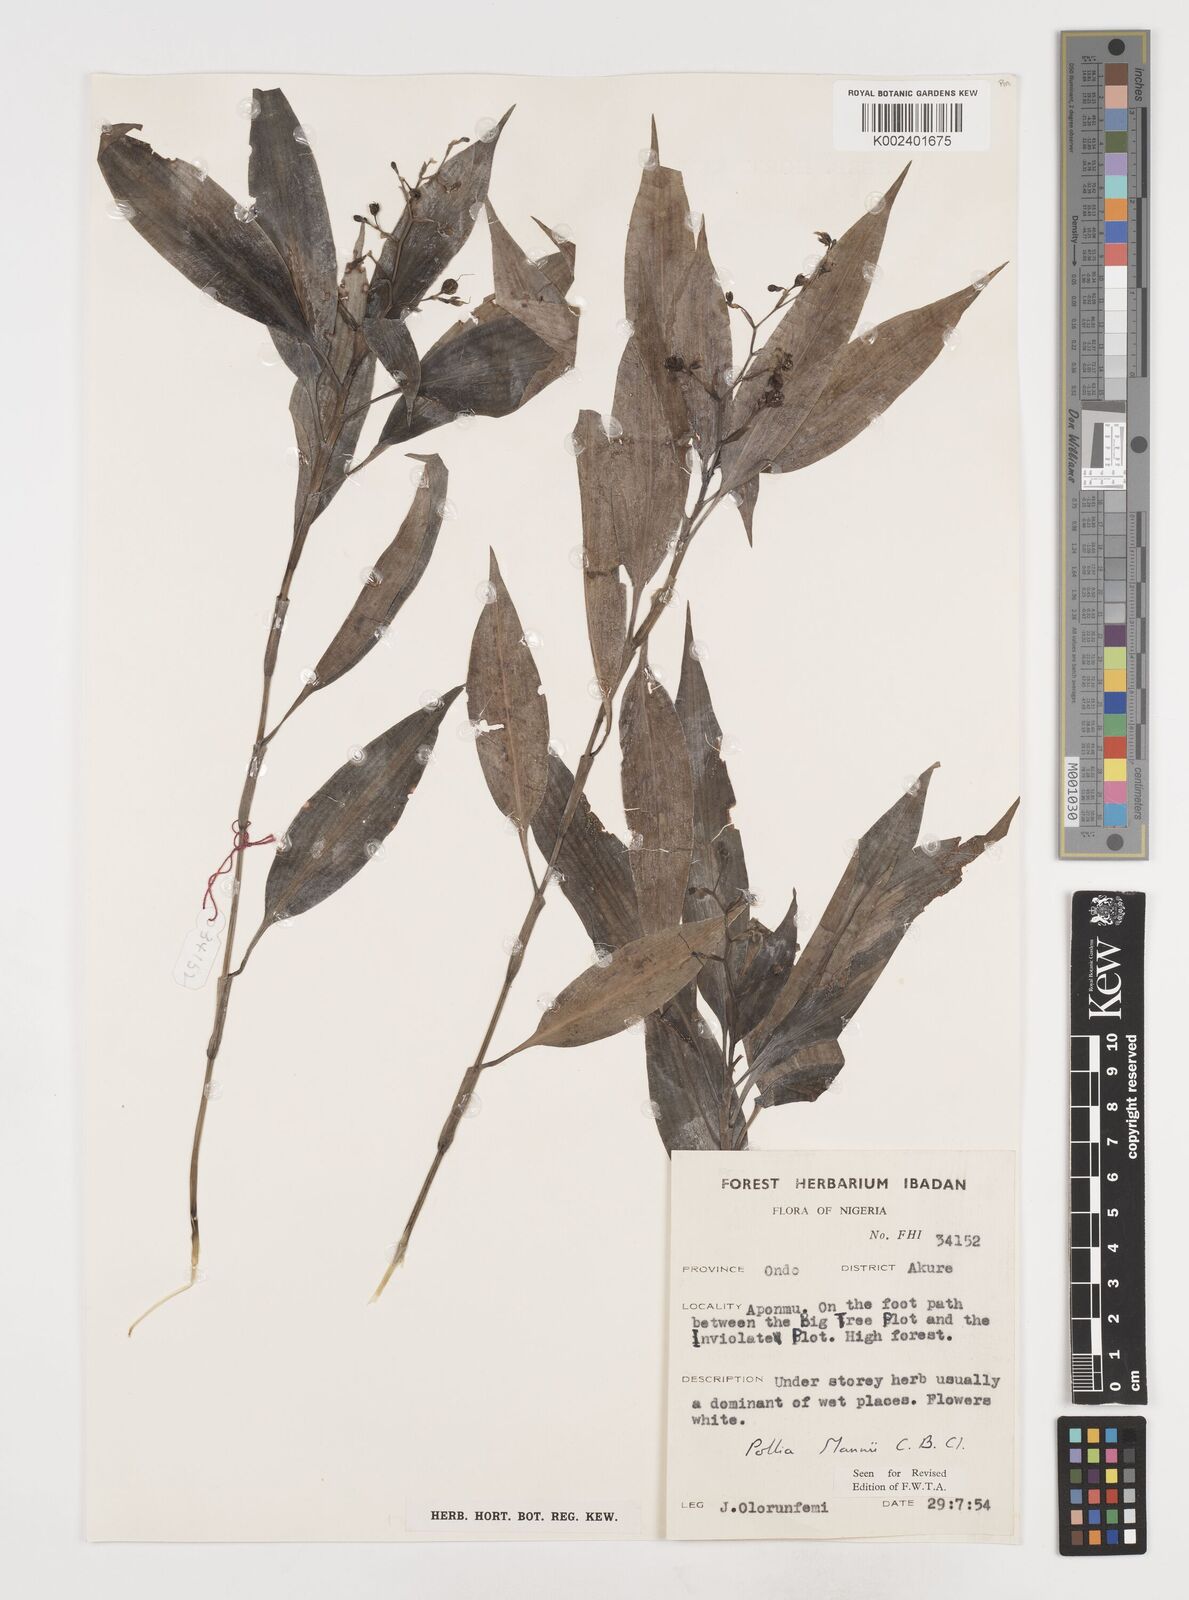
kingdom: Plantae
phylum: Tracheophyta
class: Liliopsida
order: Commelinales
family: Commelinaceae
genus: Pollia
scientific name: Pollia mannii
